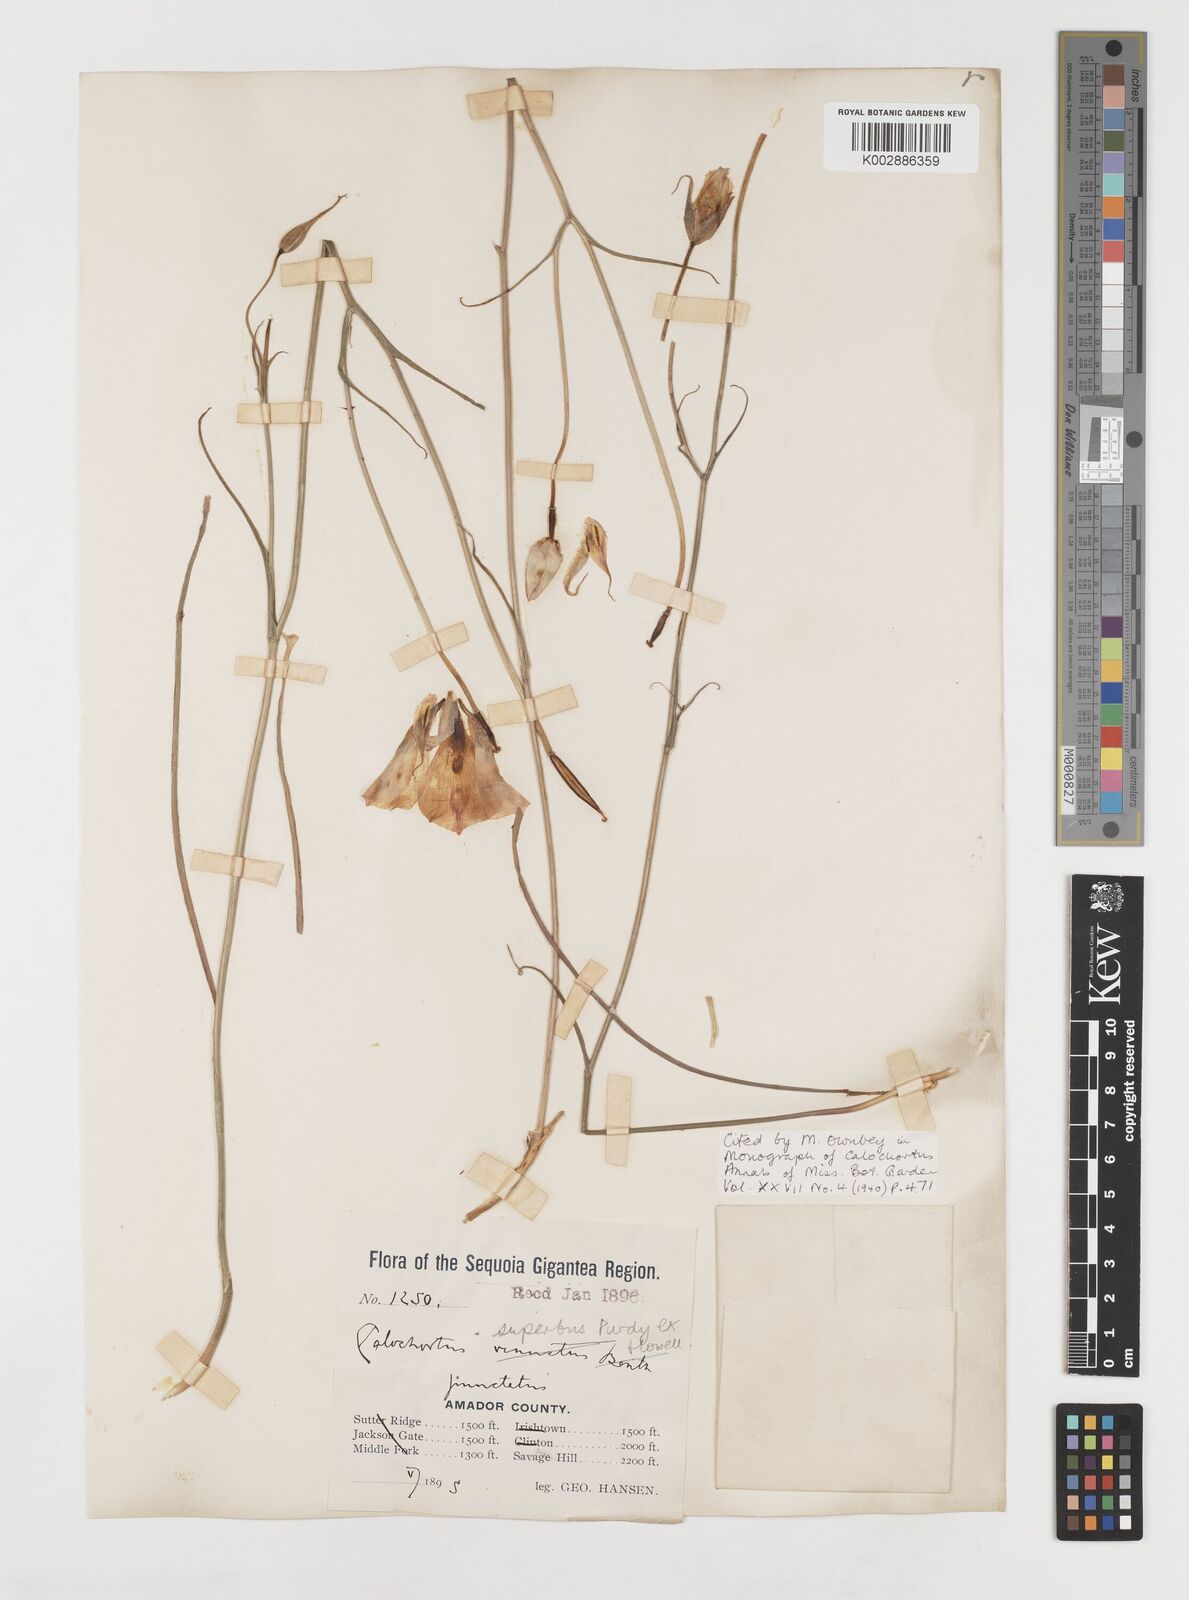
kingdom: Plantae
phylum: Tracheophyta
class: Liliopsida
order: Liliales
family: Liliaceae
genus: Calochortus
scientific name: Calochortus superbus
